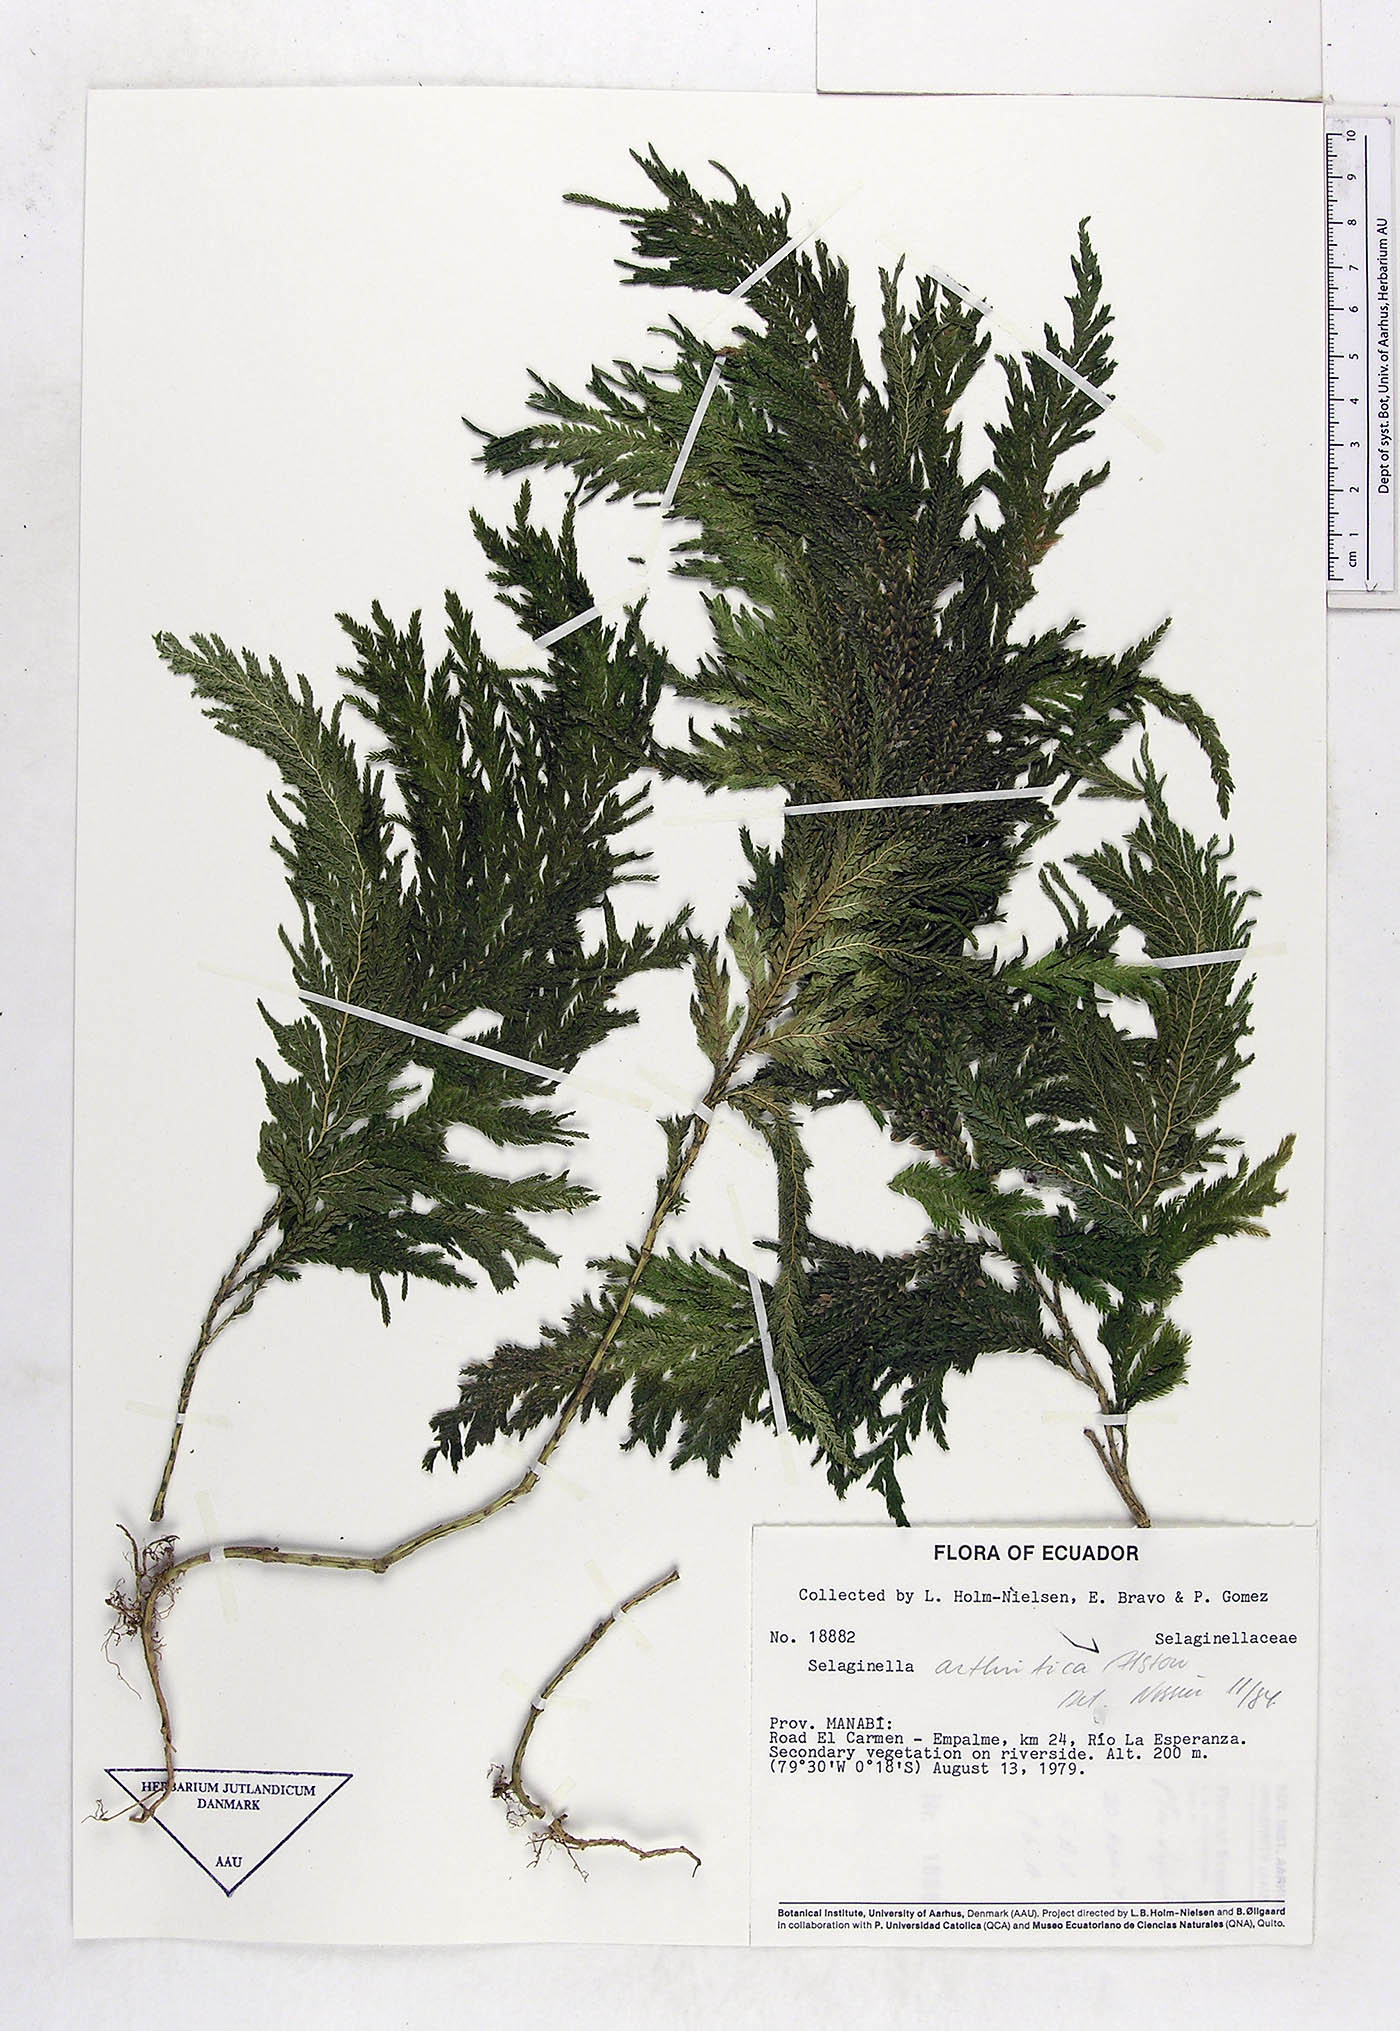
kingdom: Plantae
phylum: Tracheophyta
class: Lycopodiopsida
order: Selaginellales
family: Selaginellaceae
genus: Selaginella
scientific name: Selaginella arthritica
